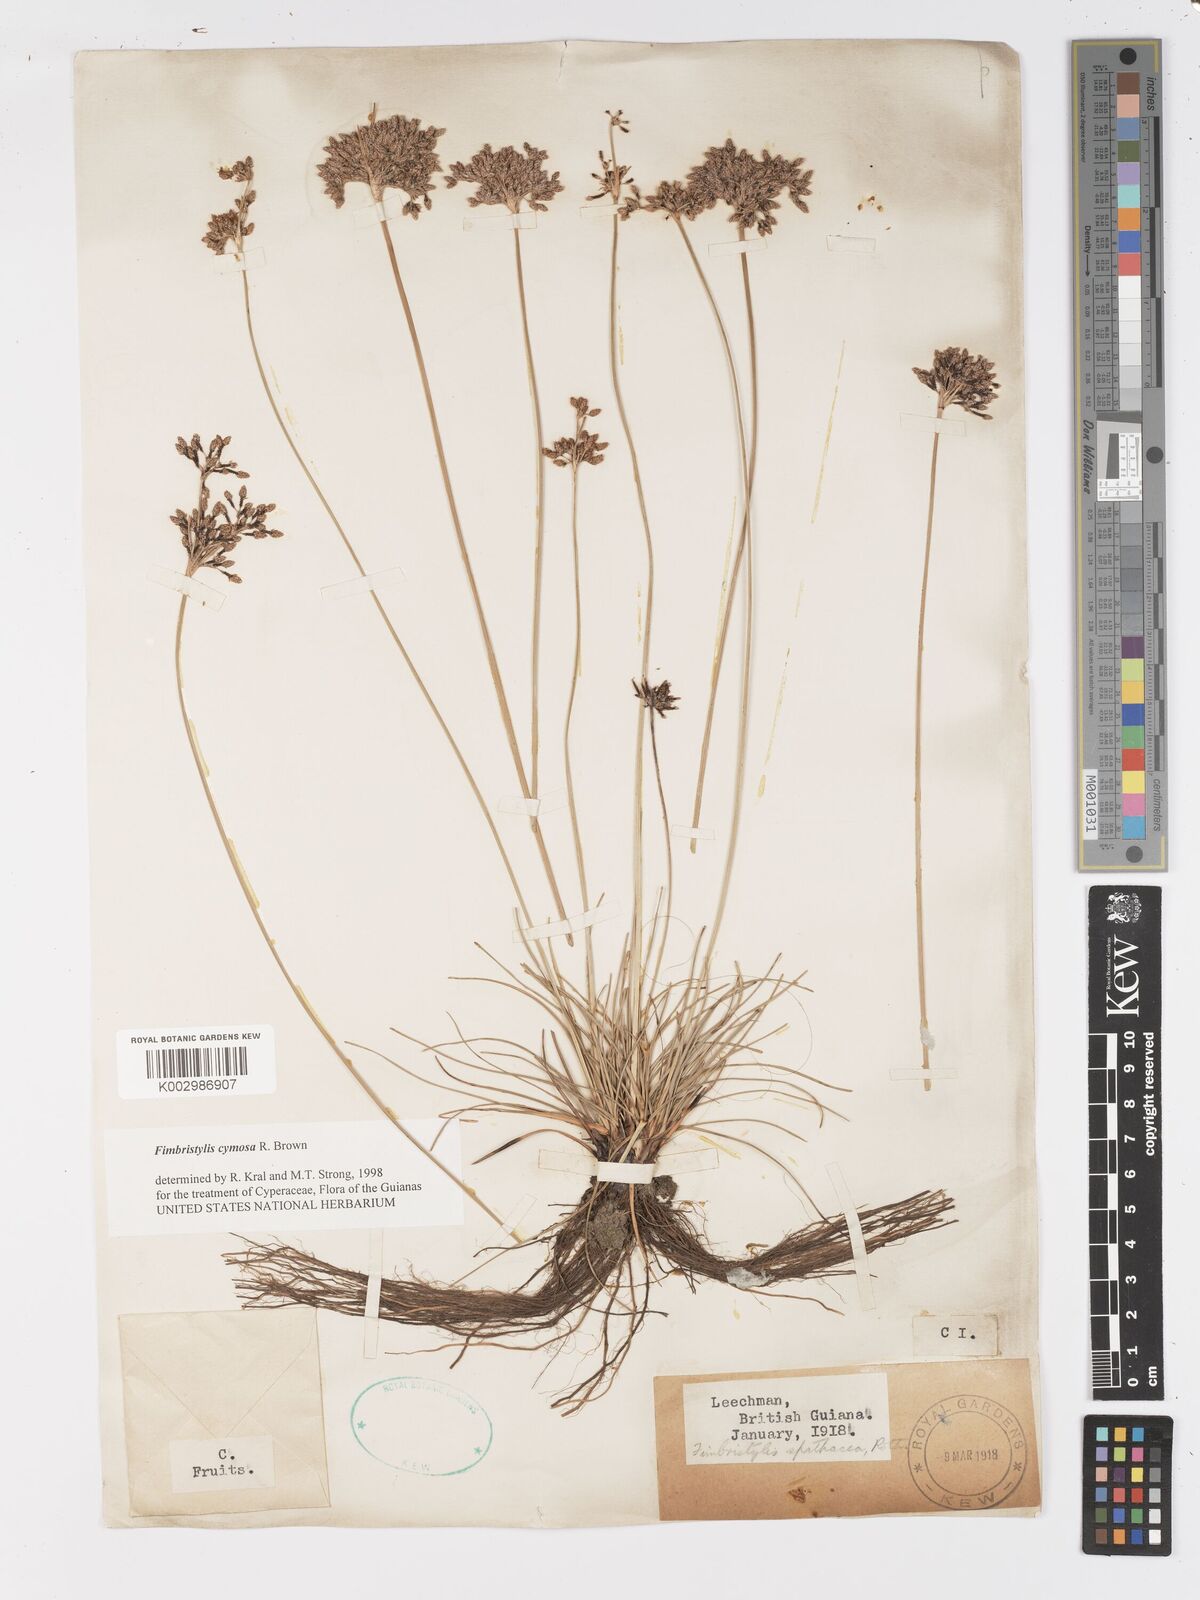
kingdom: Plantae
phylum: Tracheophyta
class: Liliopsida
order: Poales
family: Cyperaceae
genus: Fimbristylis
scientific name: Fimbristylis cymosa
